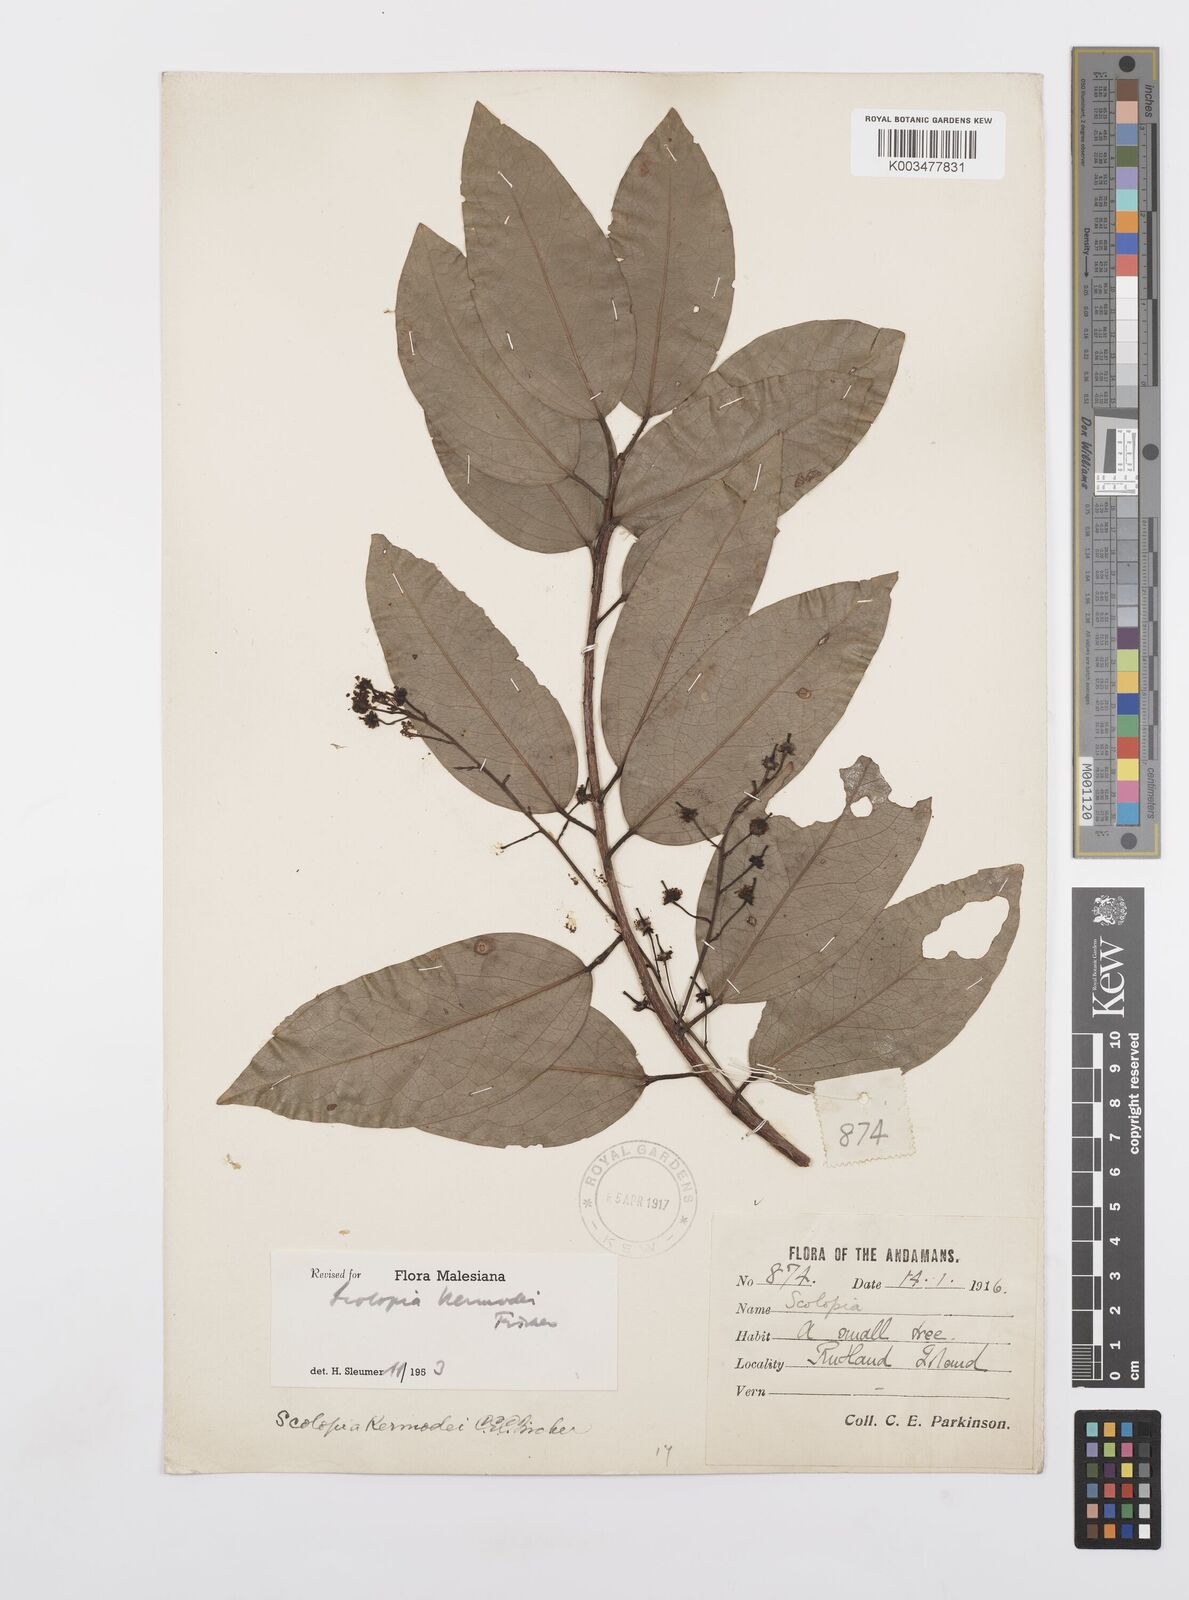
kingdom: Plantae
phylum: Tracheophyta
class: Magnoliopsida
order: Malpighiales
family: Salicaceae
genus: Scolopia
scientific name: Scolopia kermodei
